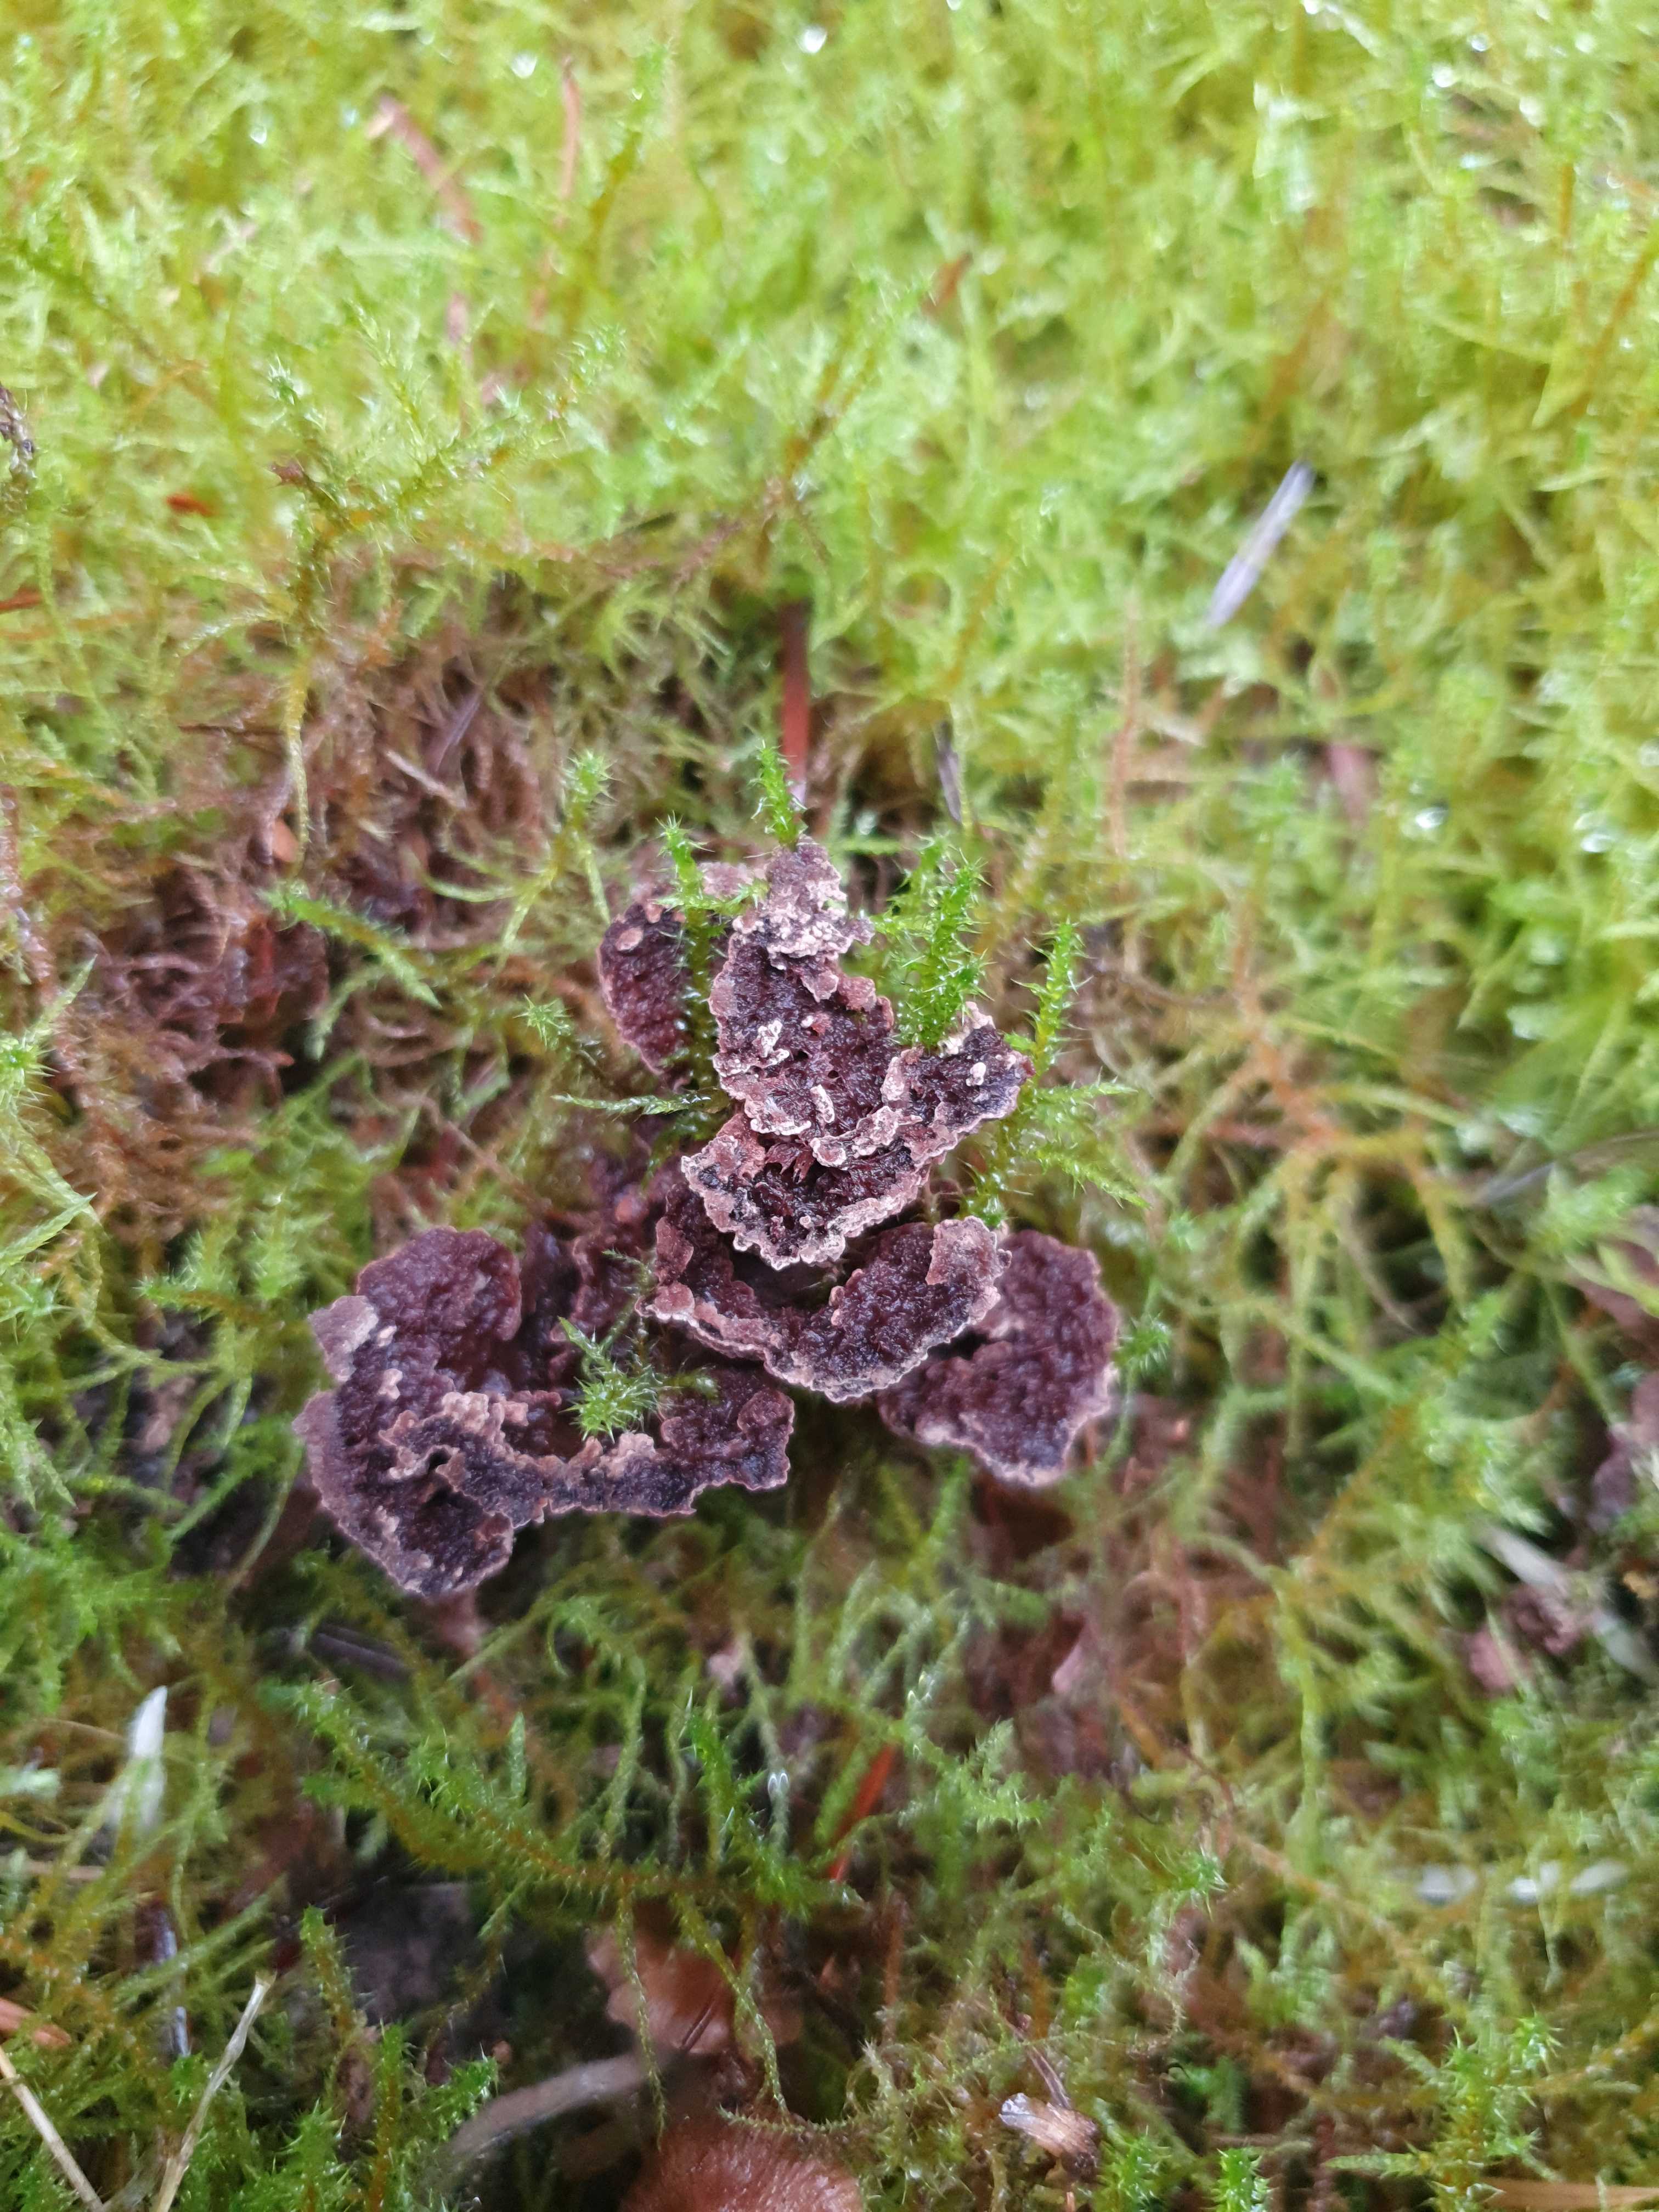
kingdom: Fungi
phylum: Basidiomycota
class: Agaricomycetes
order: Thelephorales
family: Thelephoraceae
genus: Thelephora
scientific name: Thelephora terrestris
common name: fliget frynsesvamp
